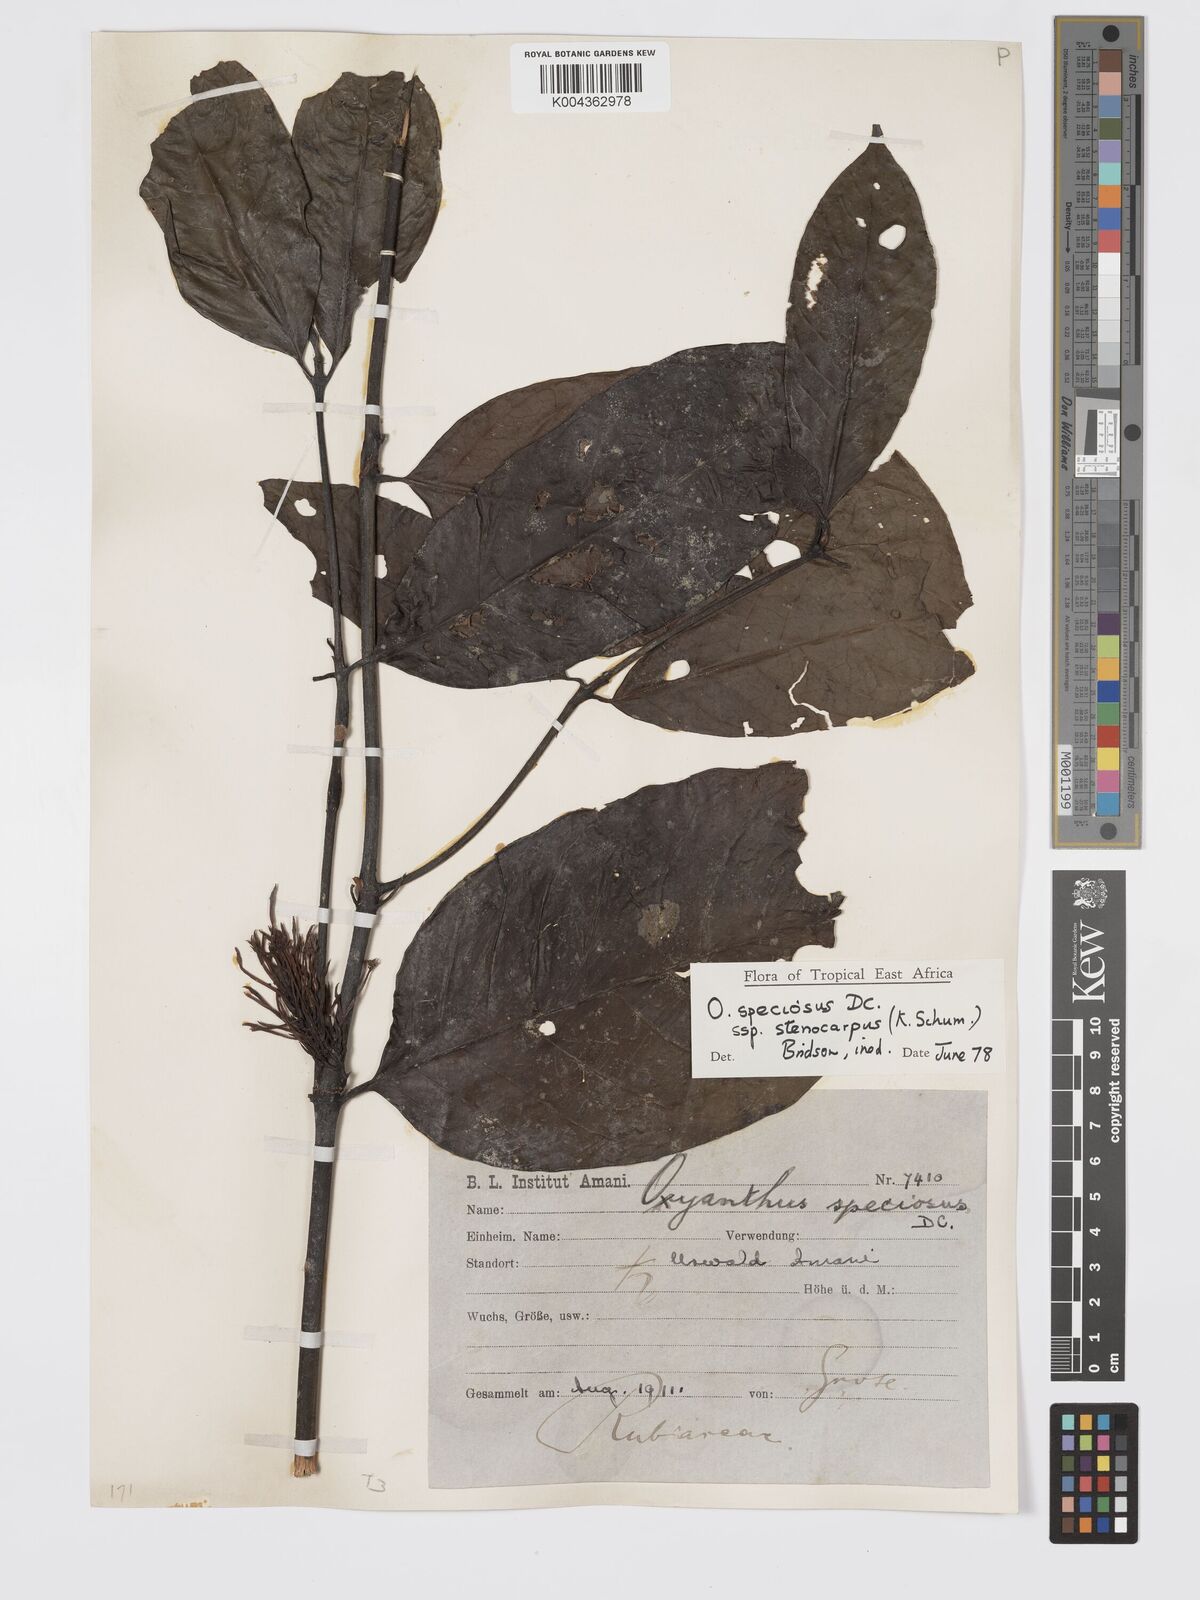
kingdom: Plantae
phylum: Tracheophyta
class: Magnoliopsida
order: Gentianales
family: Rubiaceae
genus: Oxyanthus
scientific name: Oxyanthus speciosus
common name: Whipstick loquat
